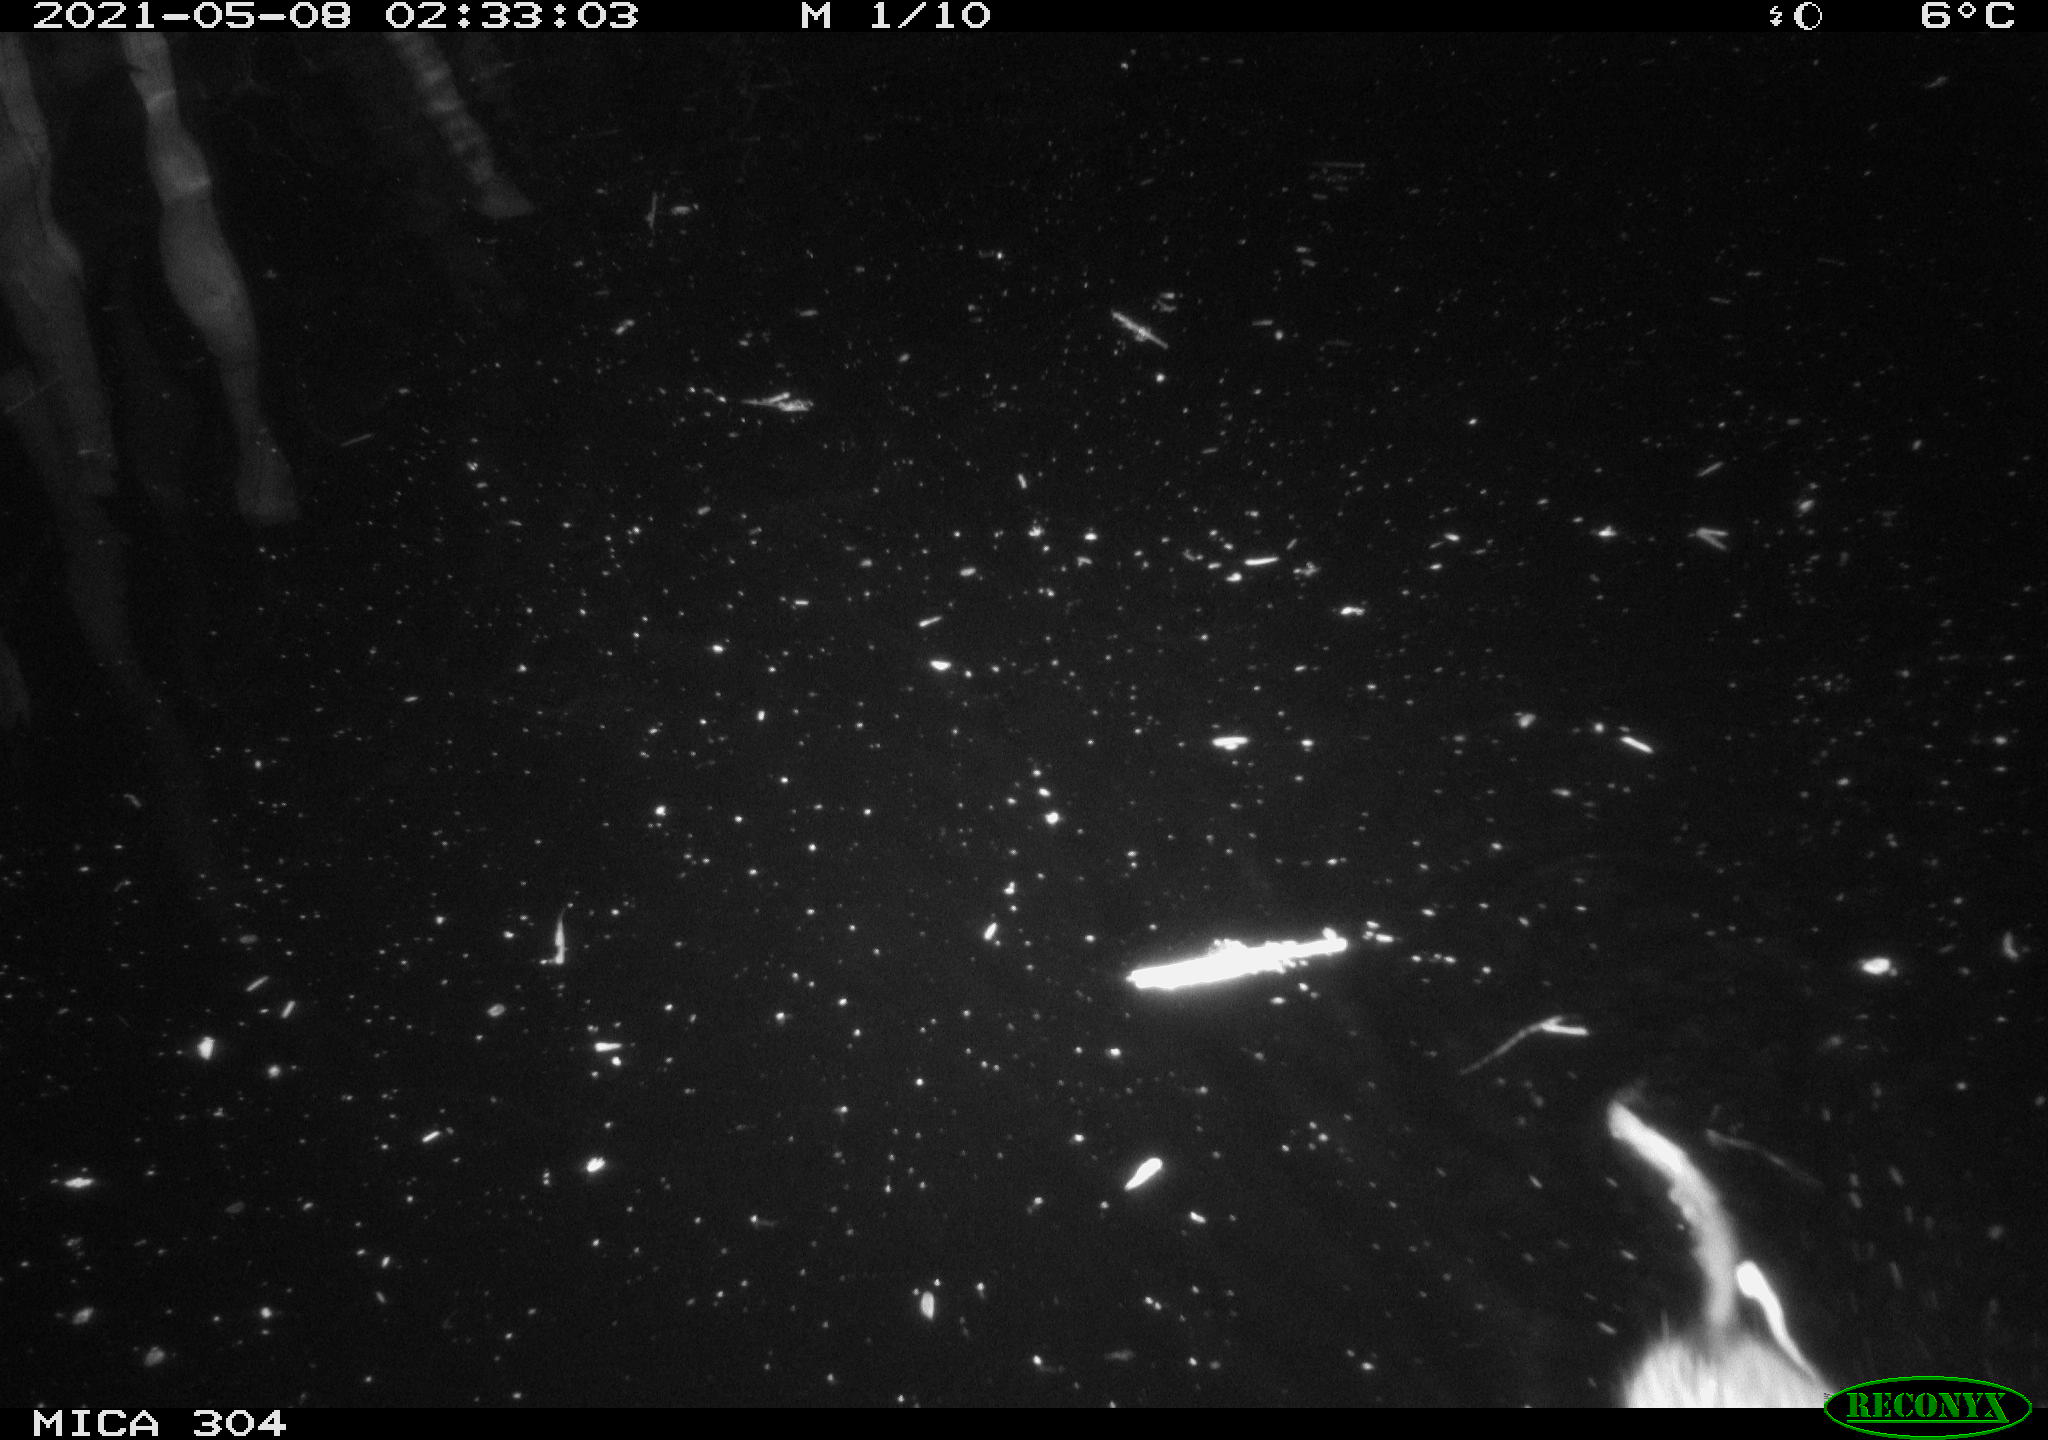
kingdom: Animalia
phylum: Chordata
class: Mammalia
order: Rodentia
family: Cricetidae
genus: Ondatra
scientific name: Ondatra zibethicus
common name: Muskrat
